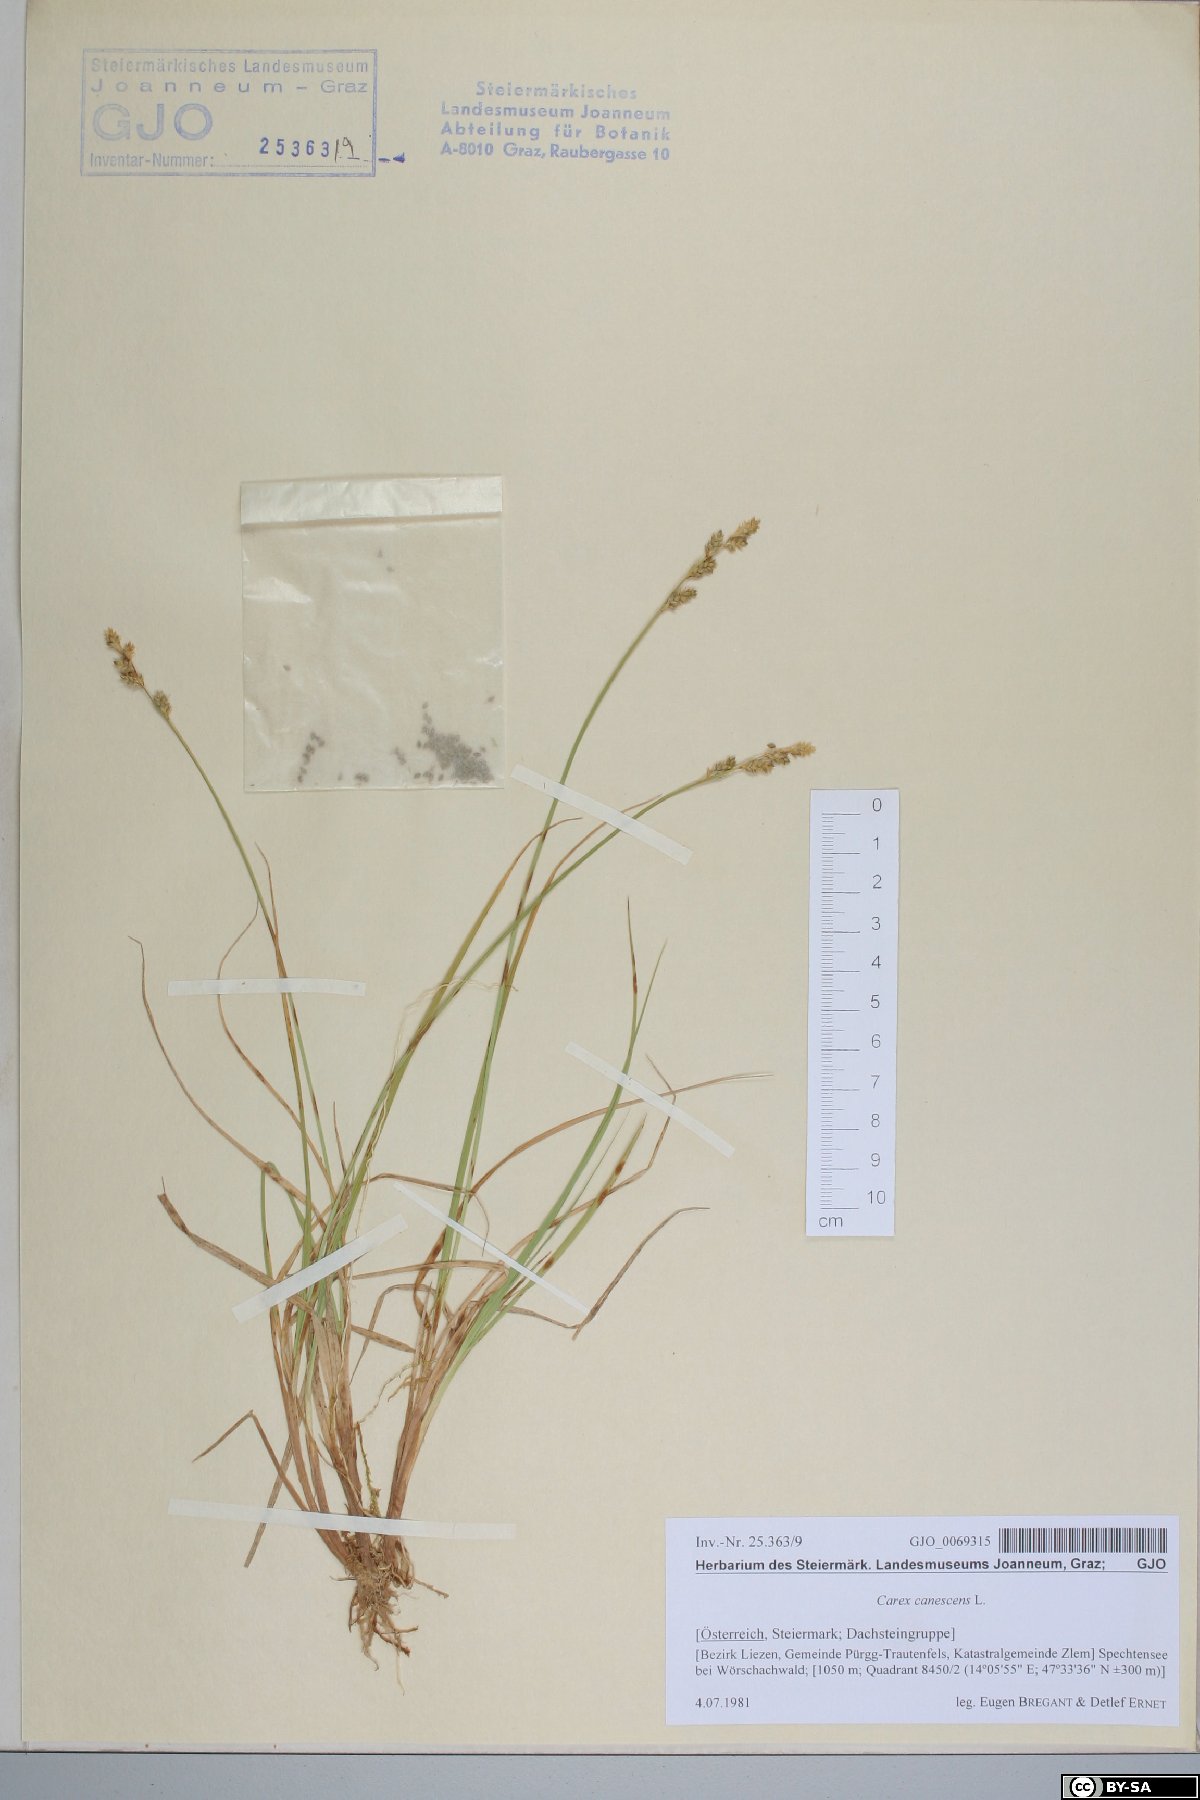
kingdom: Plantae
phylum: Tracheophyta
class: Liliopsida
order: Poales
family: Cyperaceae
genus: Carex
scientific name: Carex canescens
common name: White sedge
